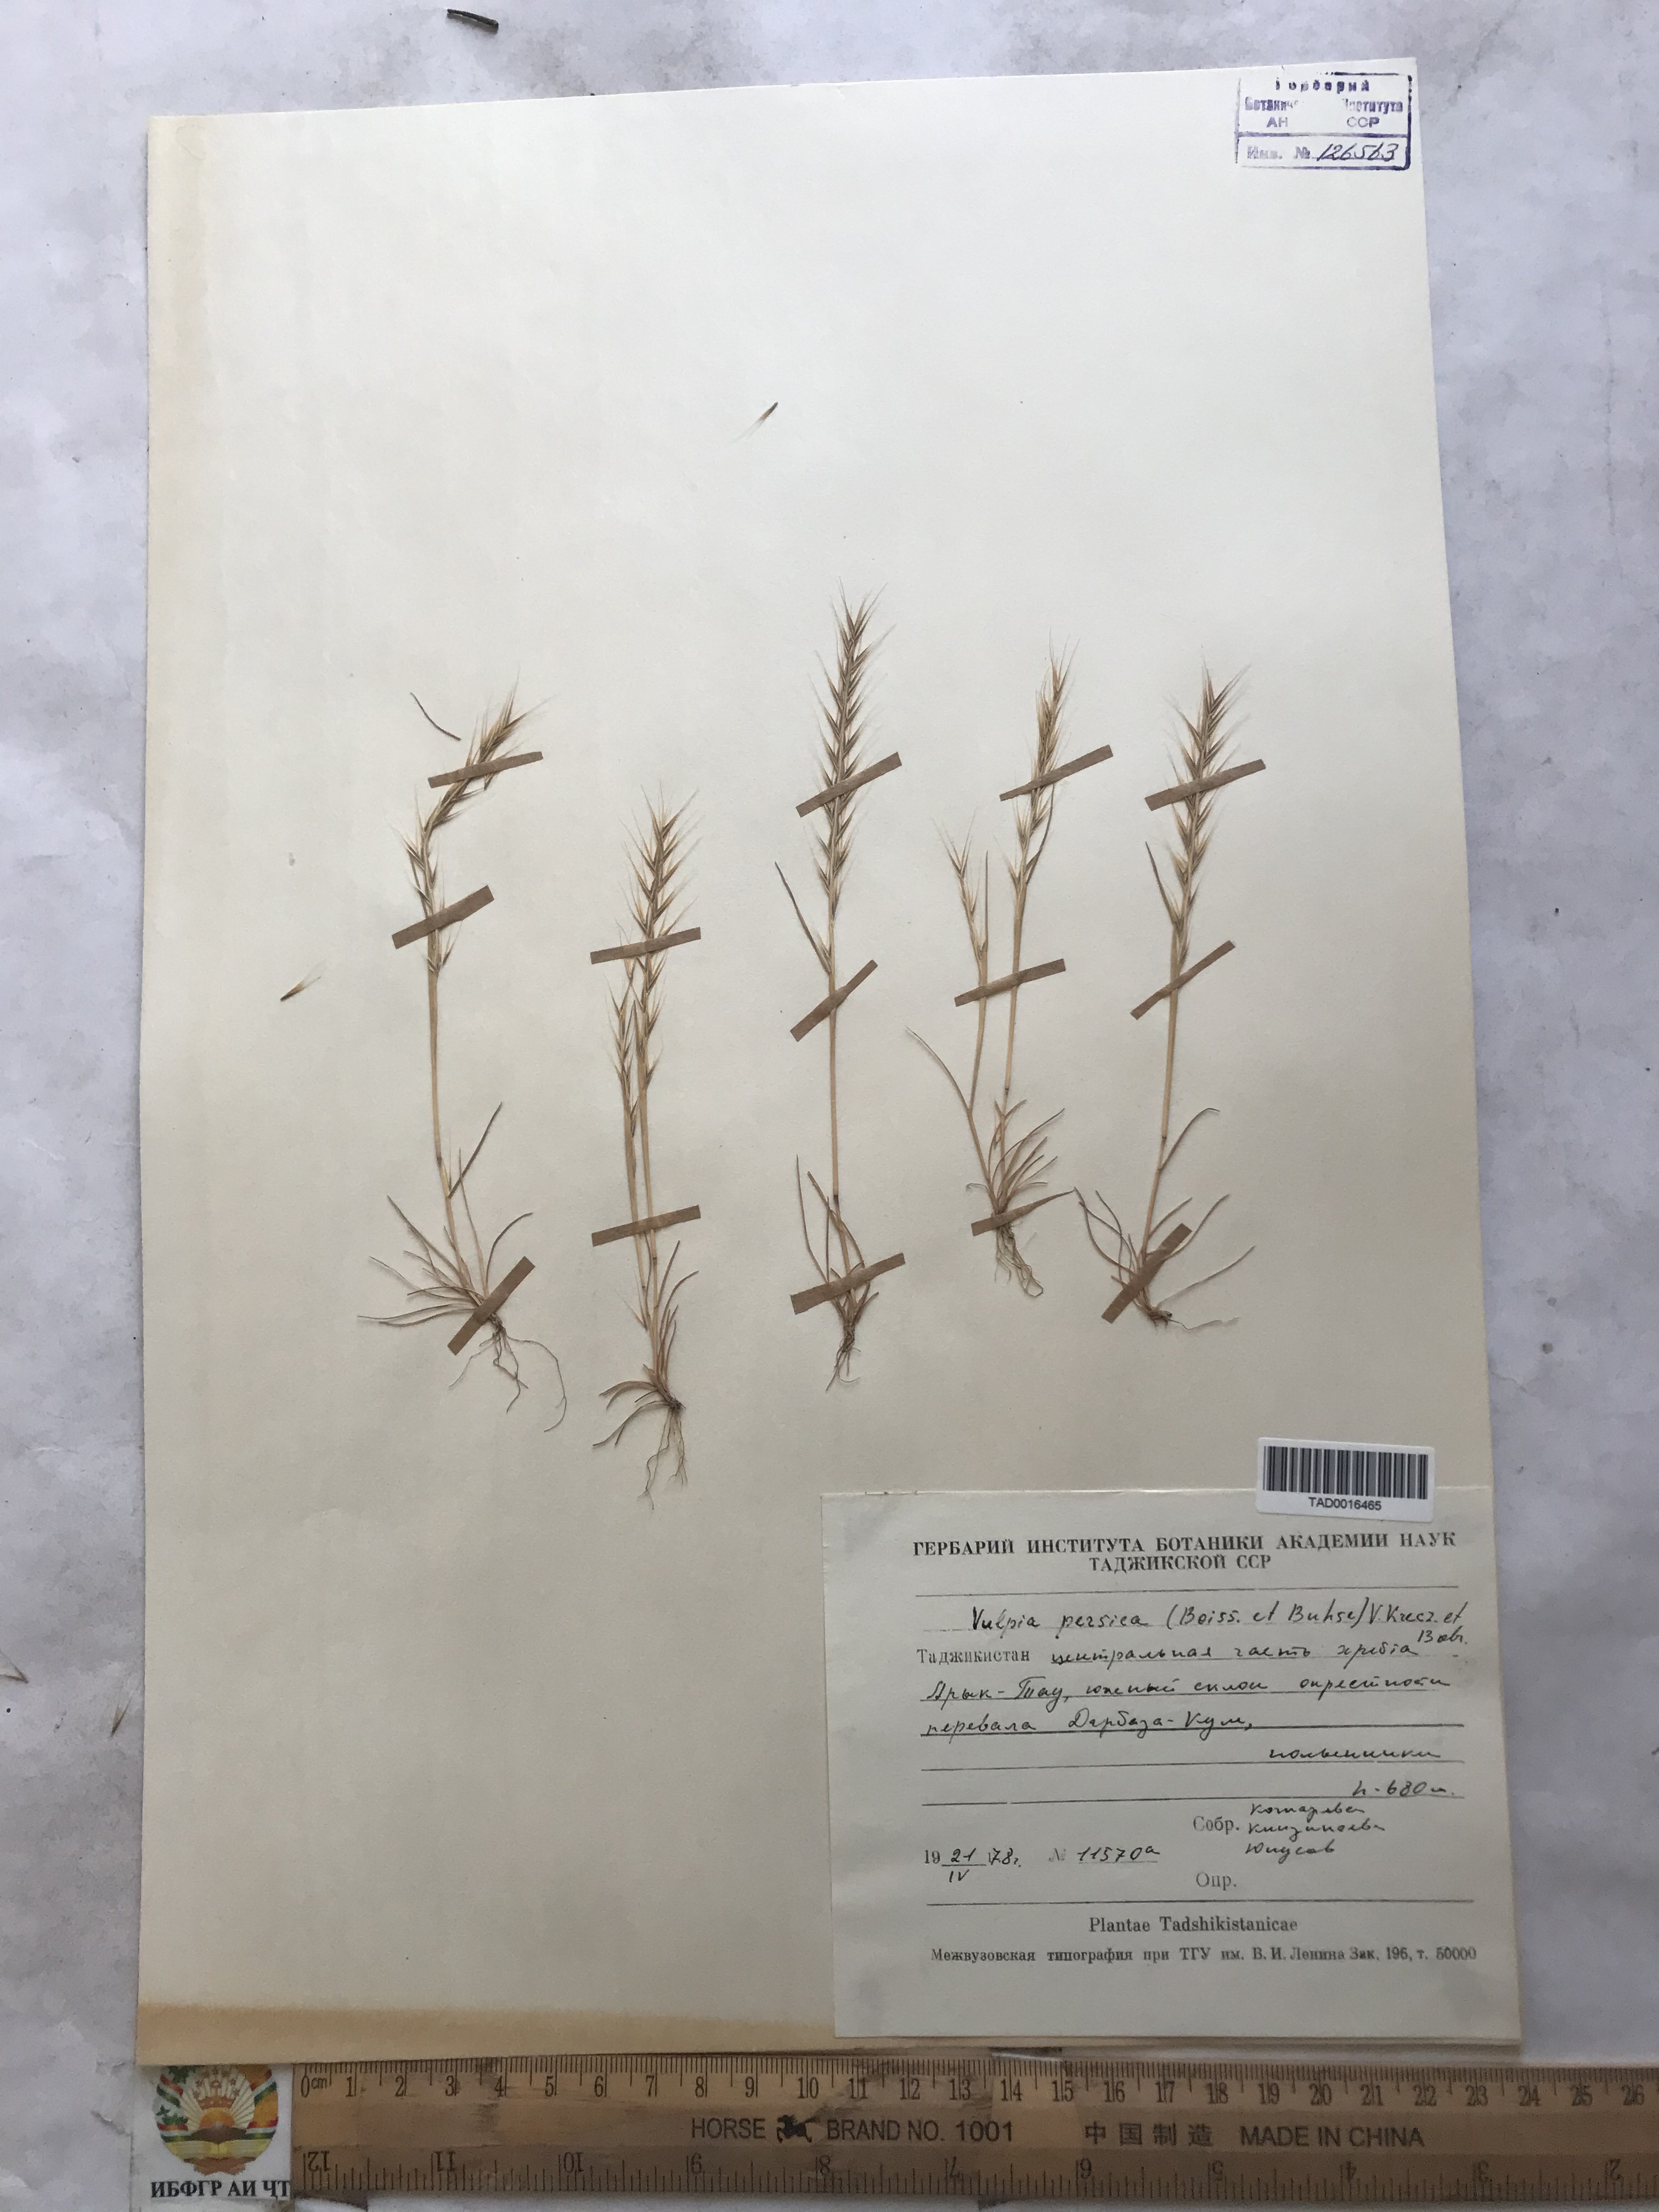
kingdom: Plantae
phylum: Tracheophyta
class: Liliopsida
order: Poales
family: Poaceae
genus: Festuca
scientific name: Festuca Vulpia persica
